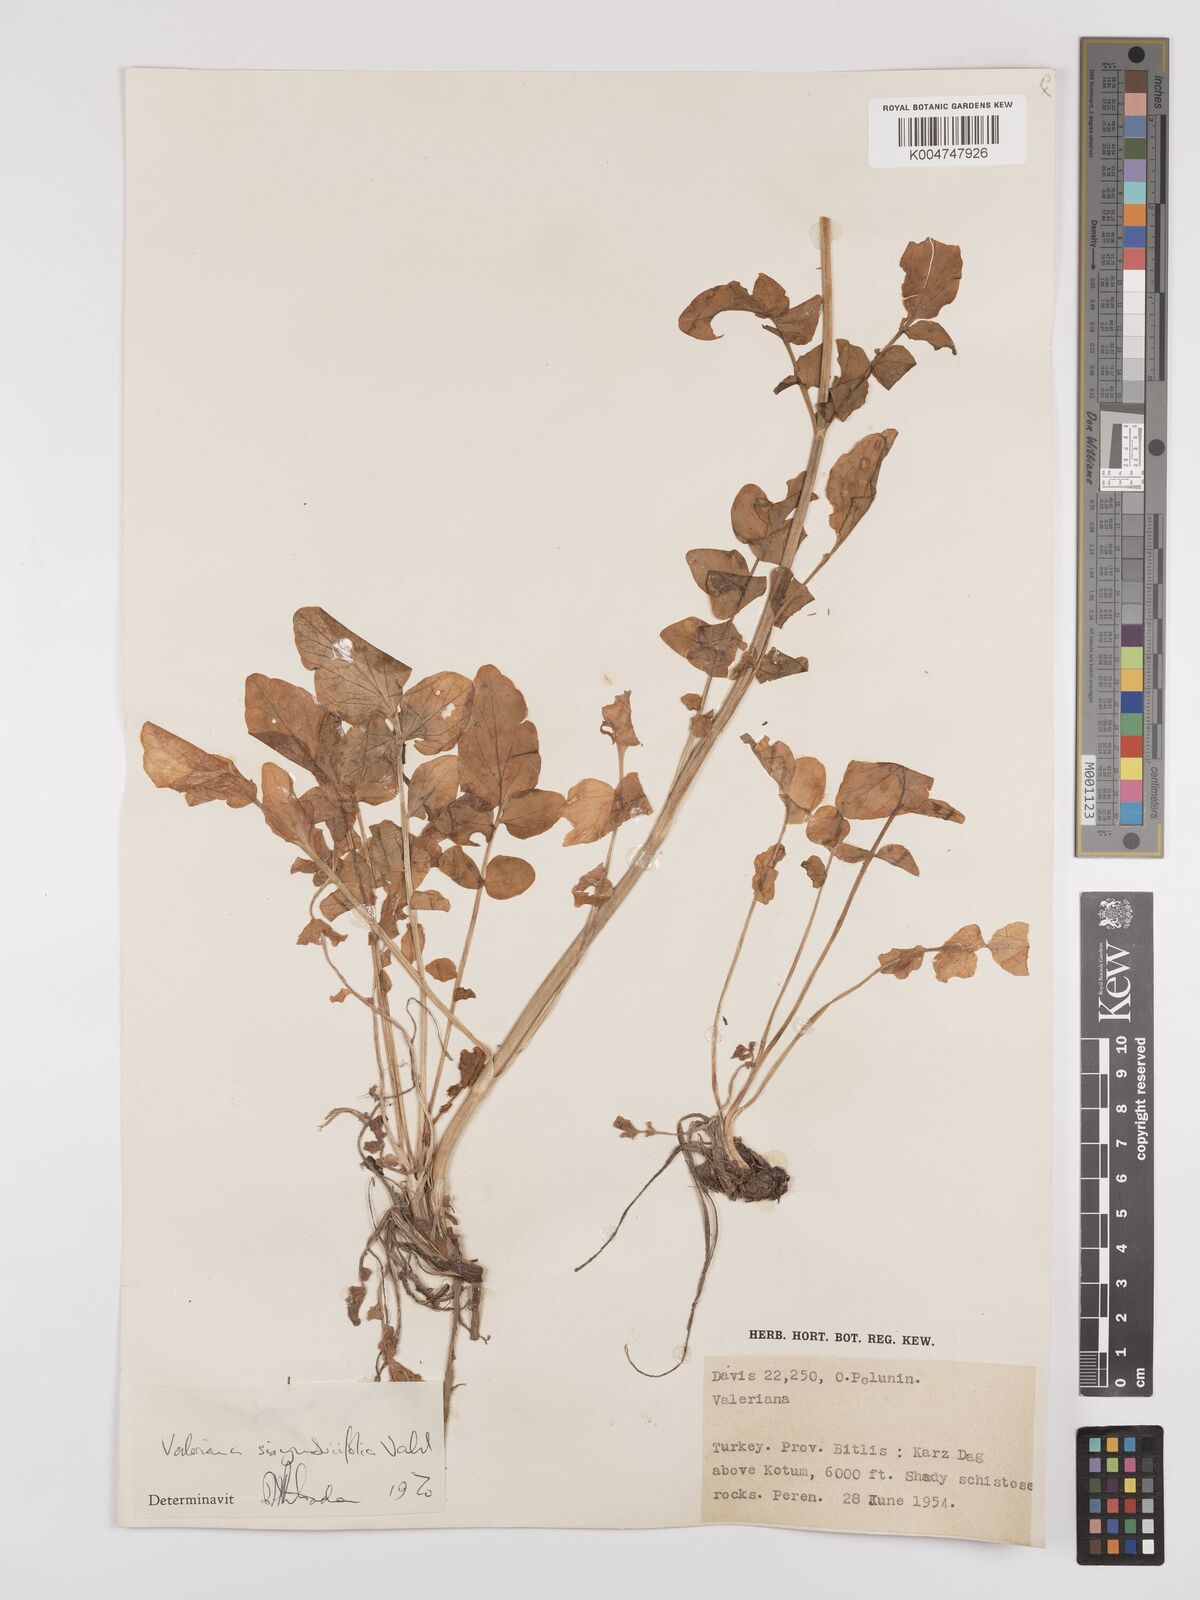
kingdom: Plantae
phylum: Tracheophyta
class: Magnoliopsida
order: Dipsacales
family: Caprifoliaceae
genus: Valeriana
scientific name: Valeriana
